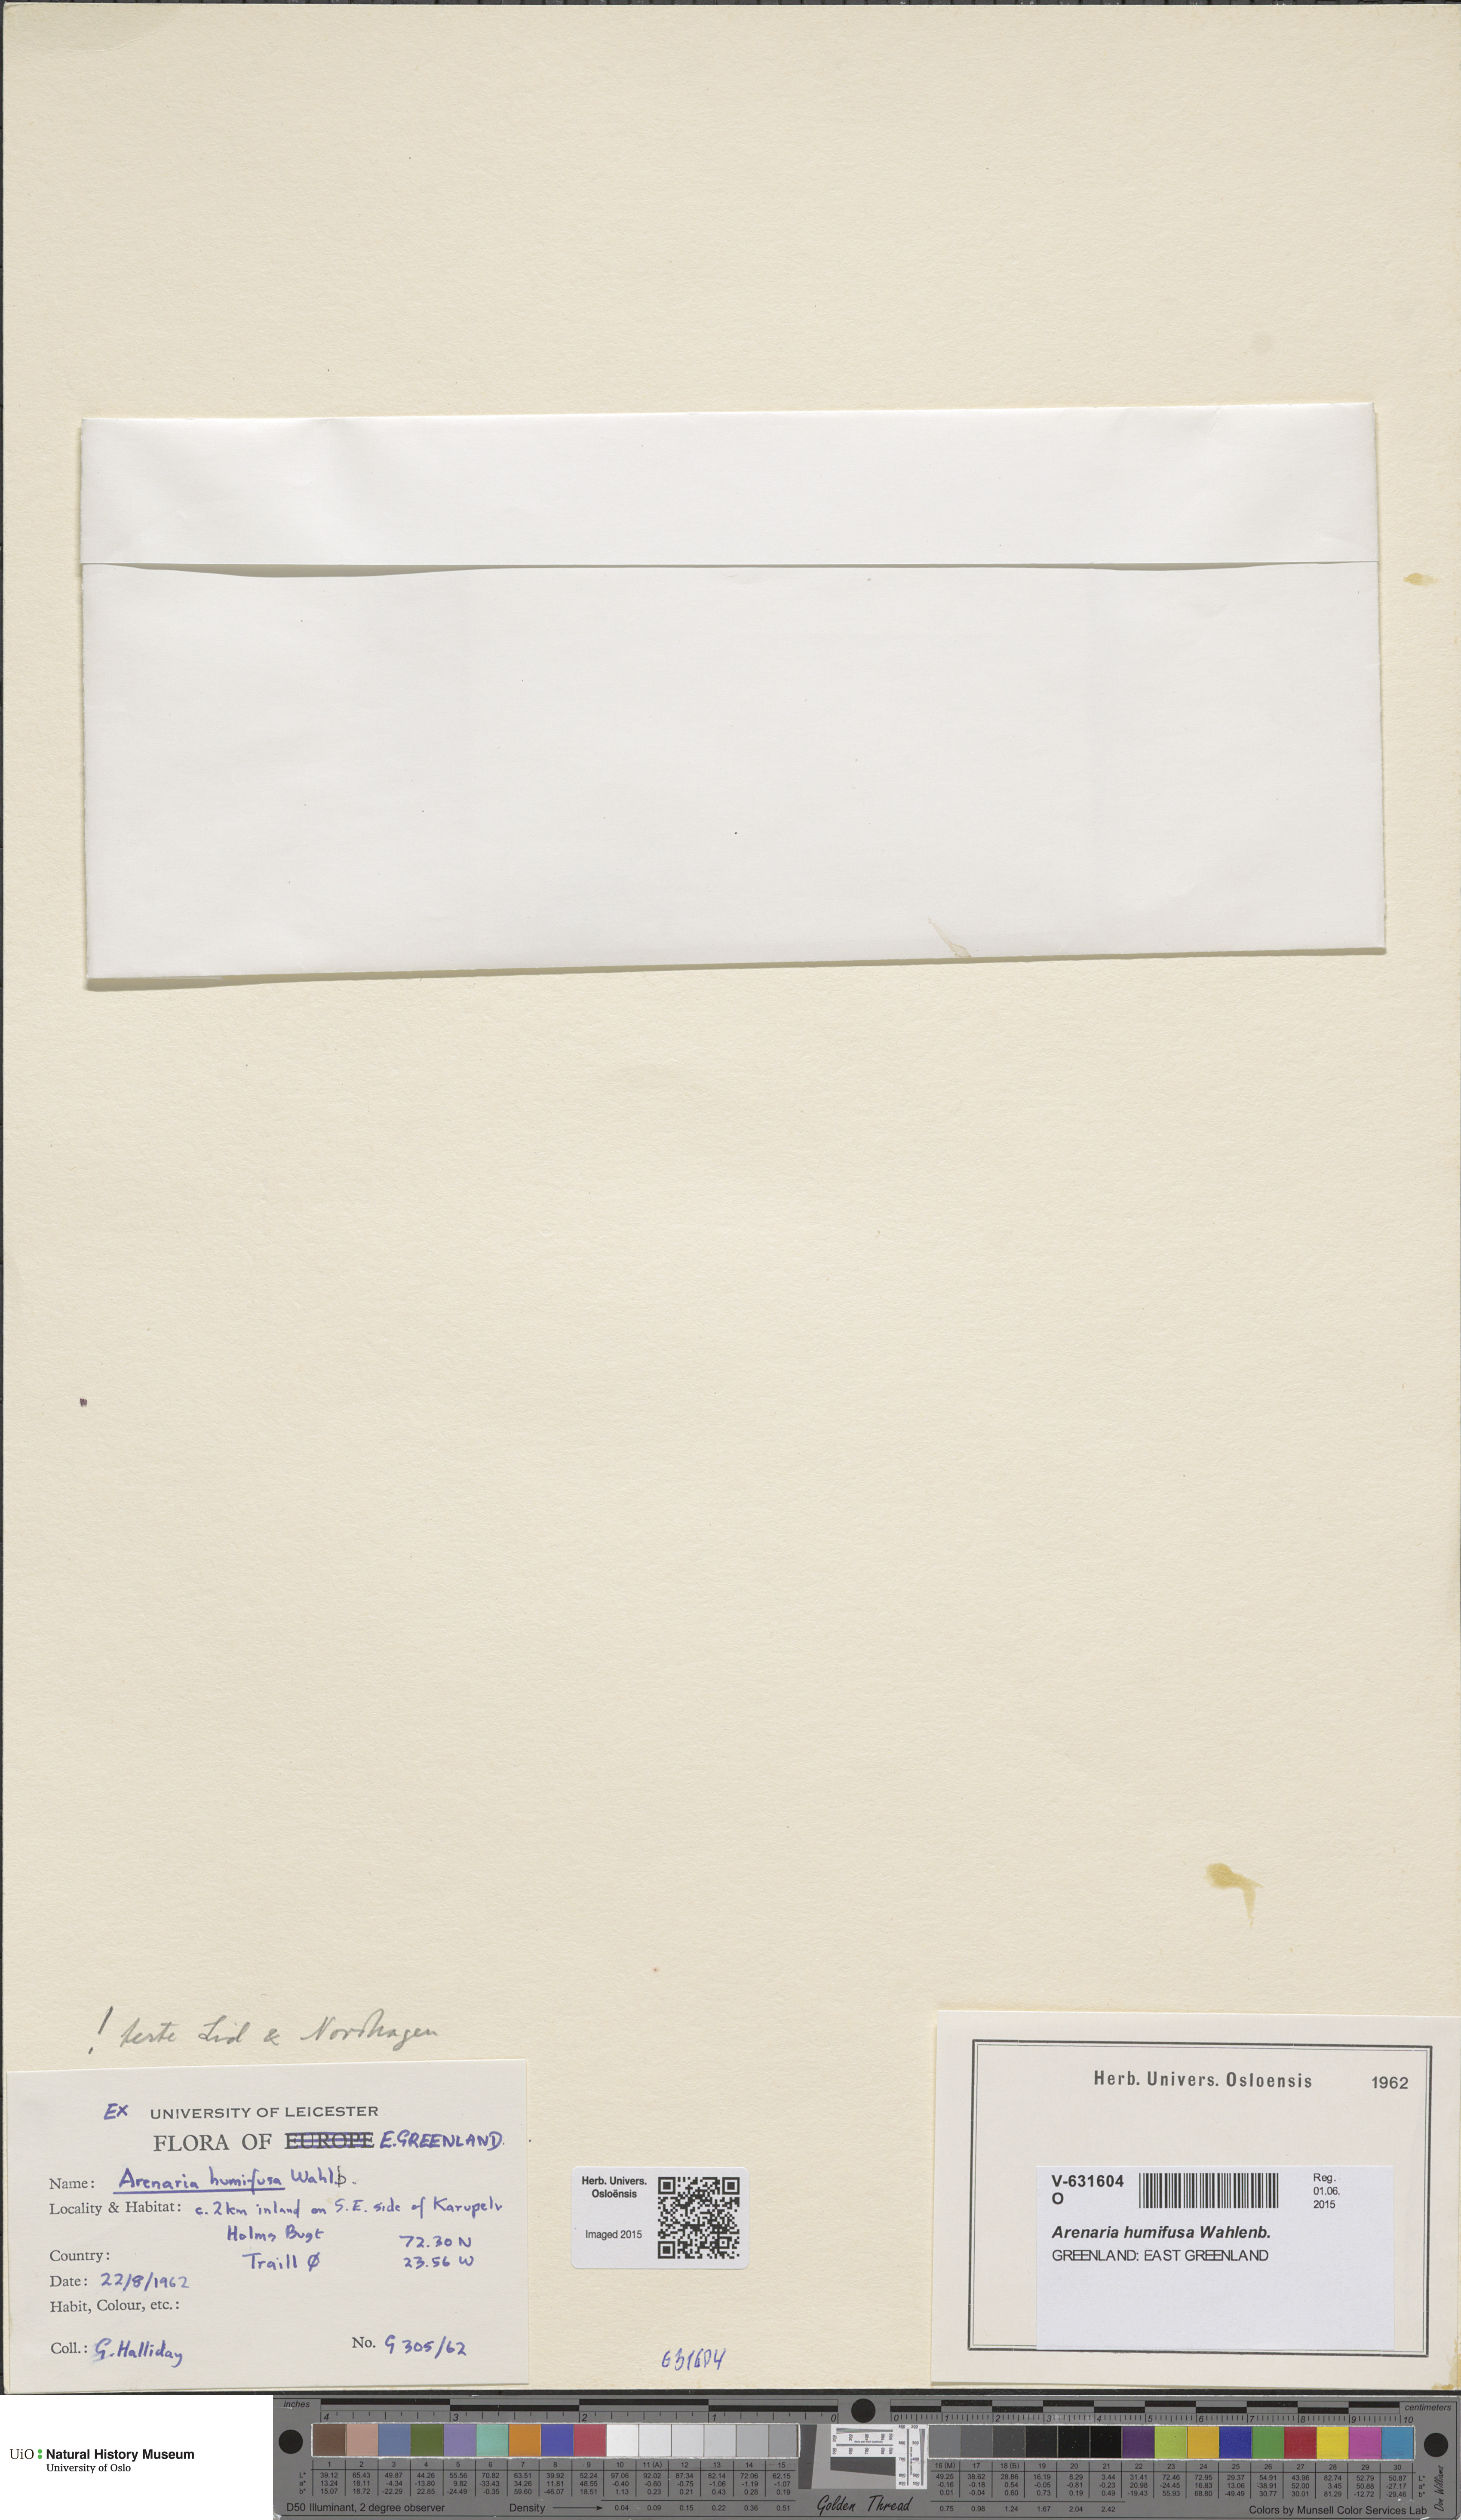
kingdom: Plantae
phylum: Tracheophyta
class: Magnoliopsida
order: Caryophyllales
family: Caryophyllaceae
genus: Arenaria
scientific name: Arenaria humifusa
